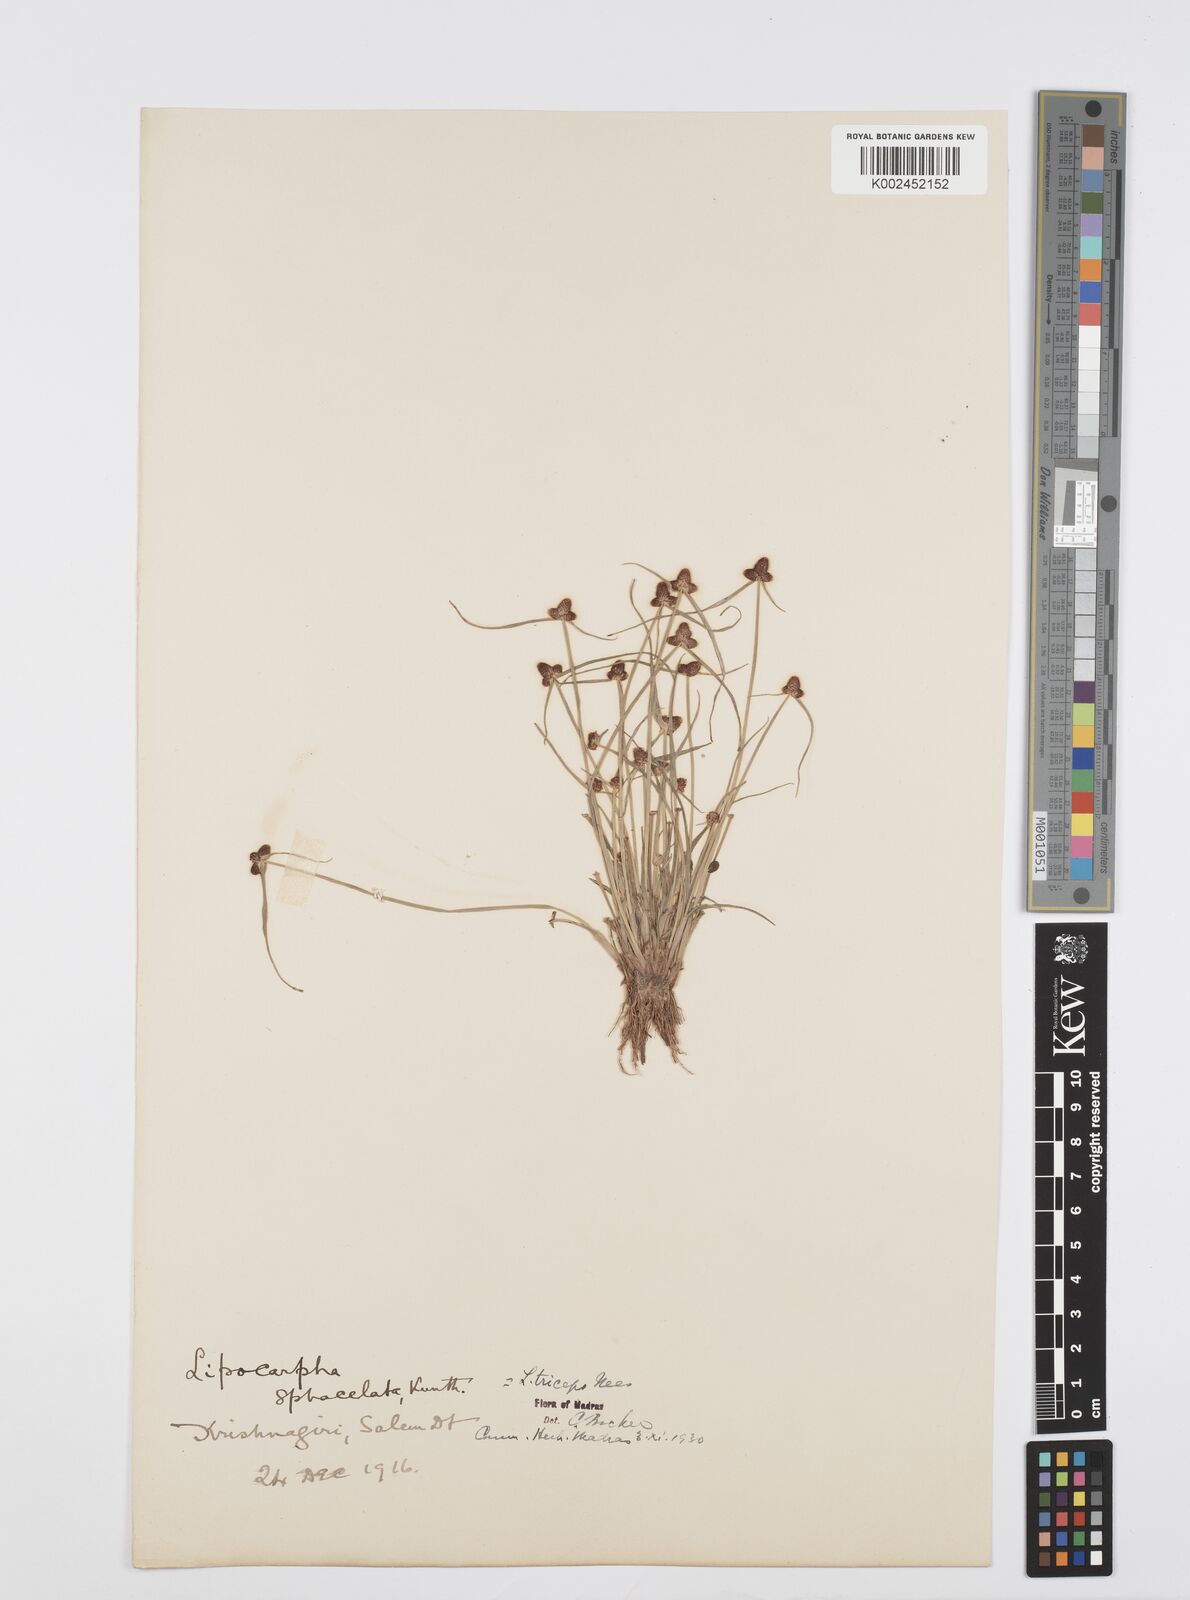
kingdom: Plantae
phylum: Tracheophyta
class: Liliopsida
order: Poales
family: Cyperaceae
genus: Cyperus
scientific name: Cyperus sphacelatus
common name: Roadside flatsedge
